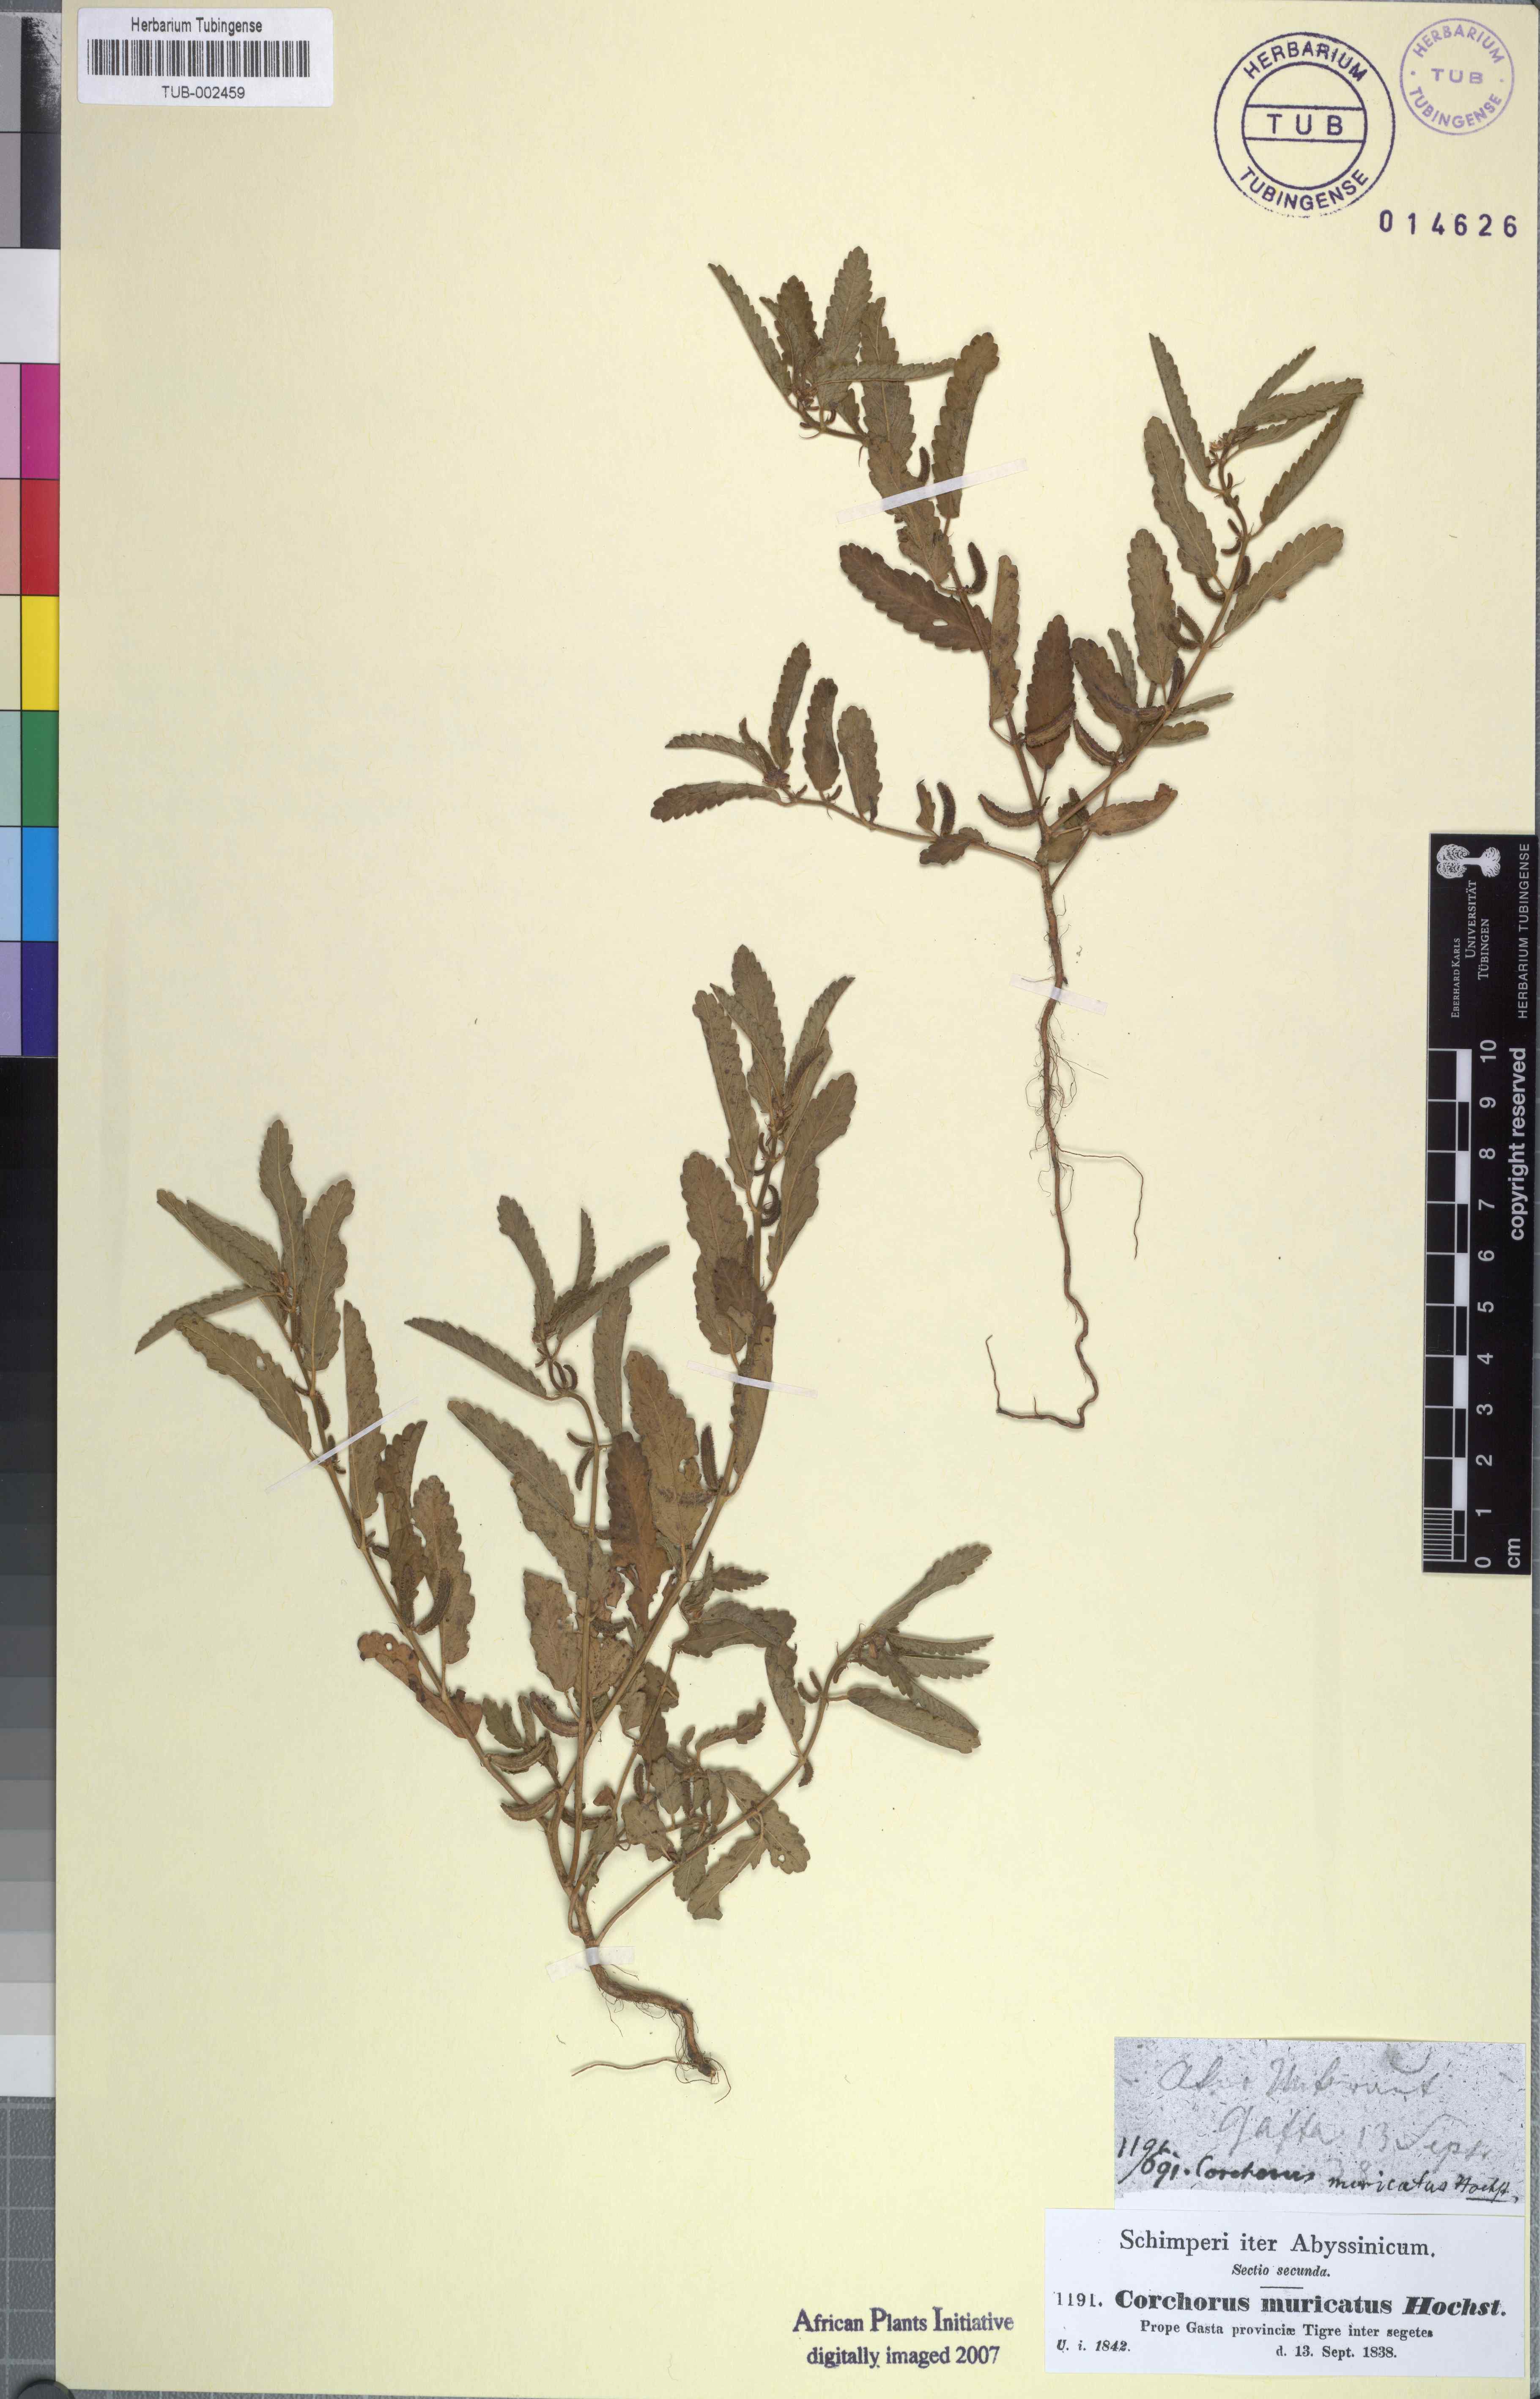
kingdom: Plantae
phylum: Tracheophyta
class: Magnoliopsida
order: Malvales
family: Malvaceae
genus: Corchorus
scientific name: Corchorus schimperi
